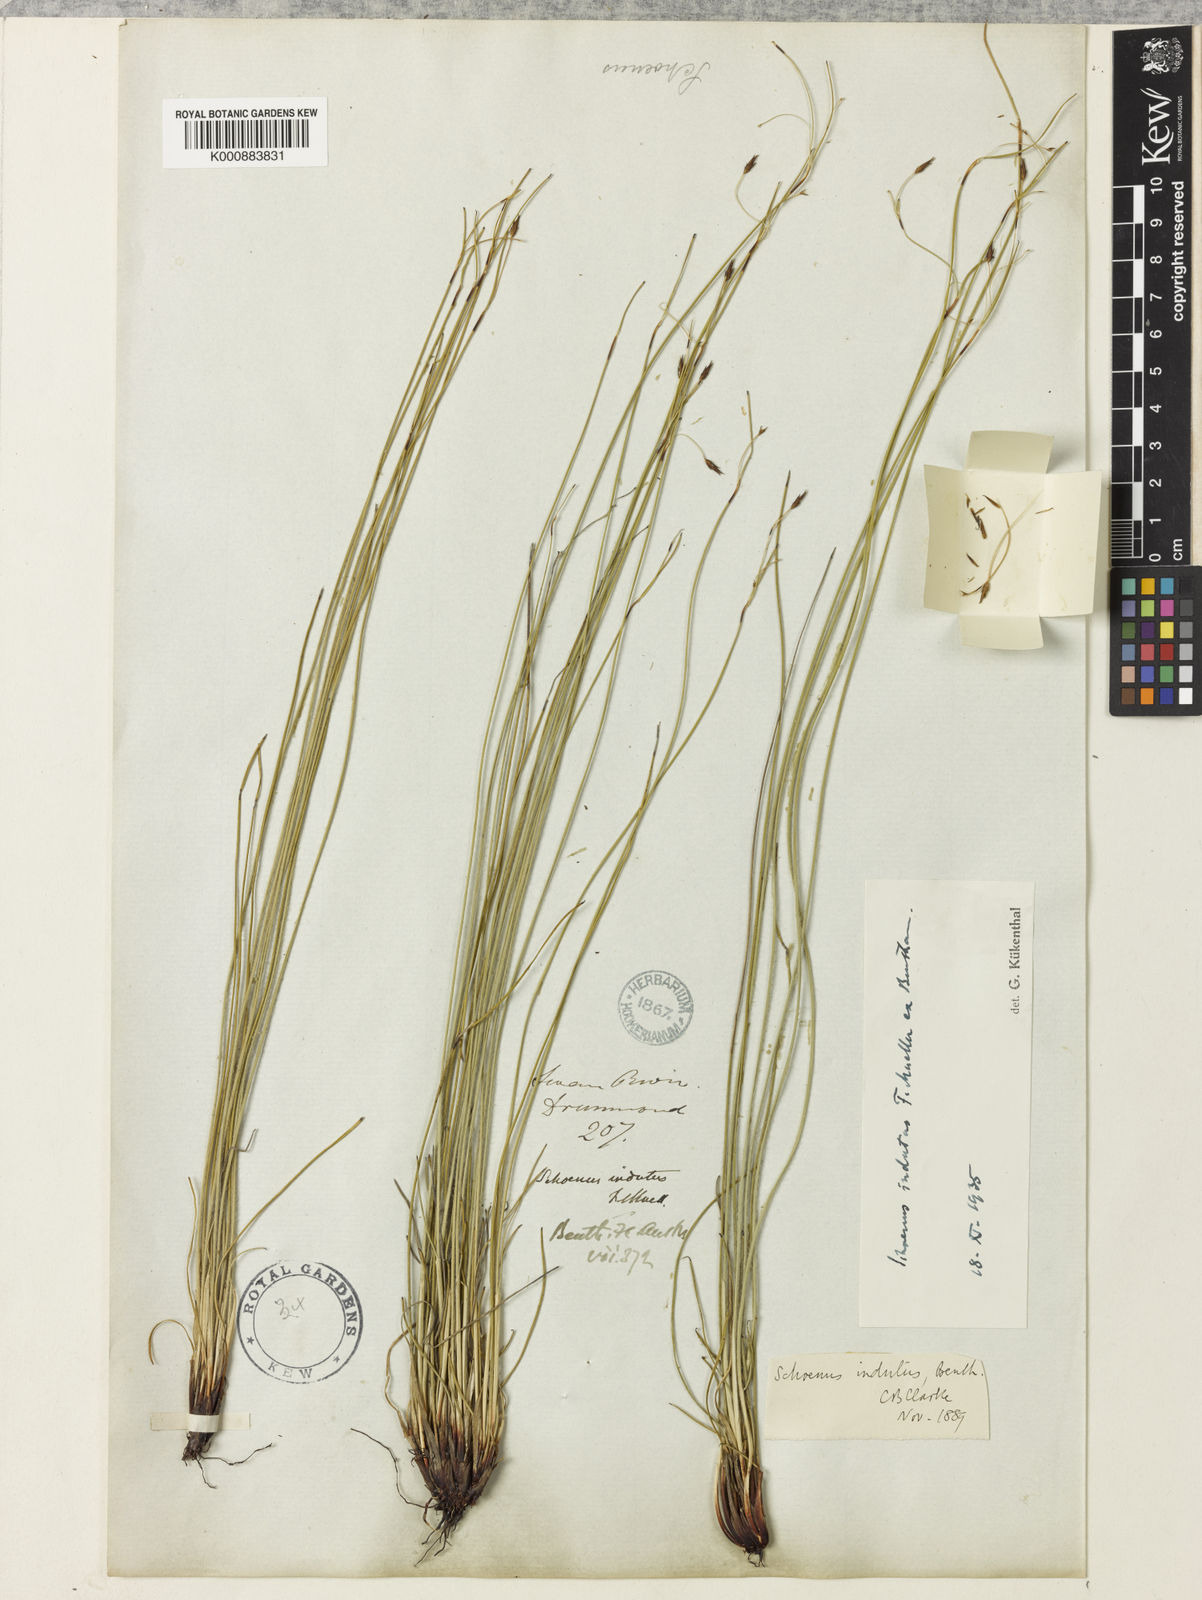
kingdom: Plantae
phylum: Tracheophyta
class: Liliopsida
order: Poales
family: Cyperaceae
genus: Schoenus
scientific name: Schoenus indutus
